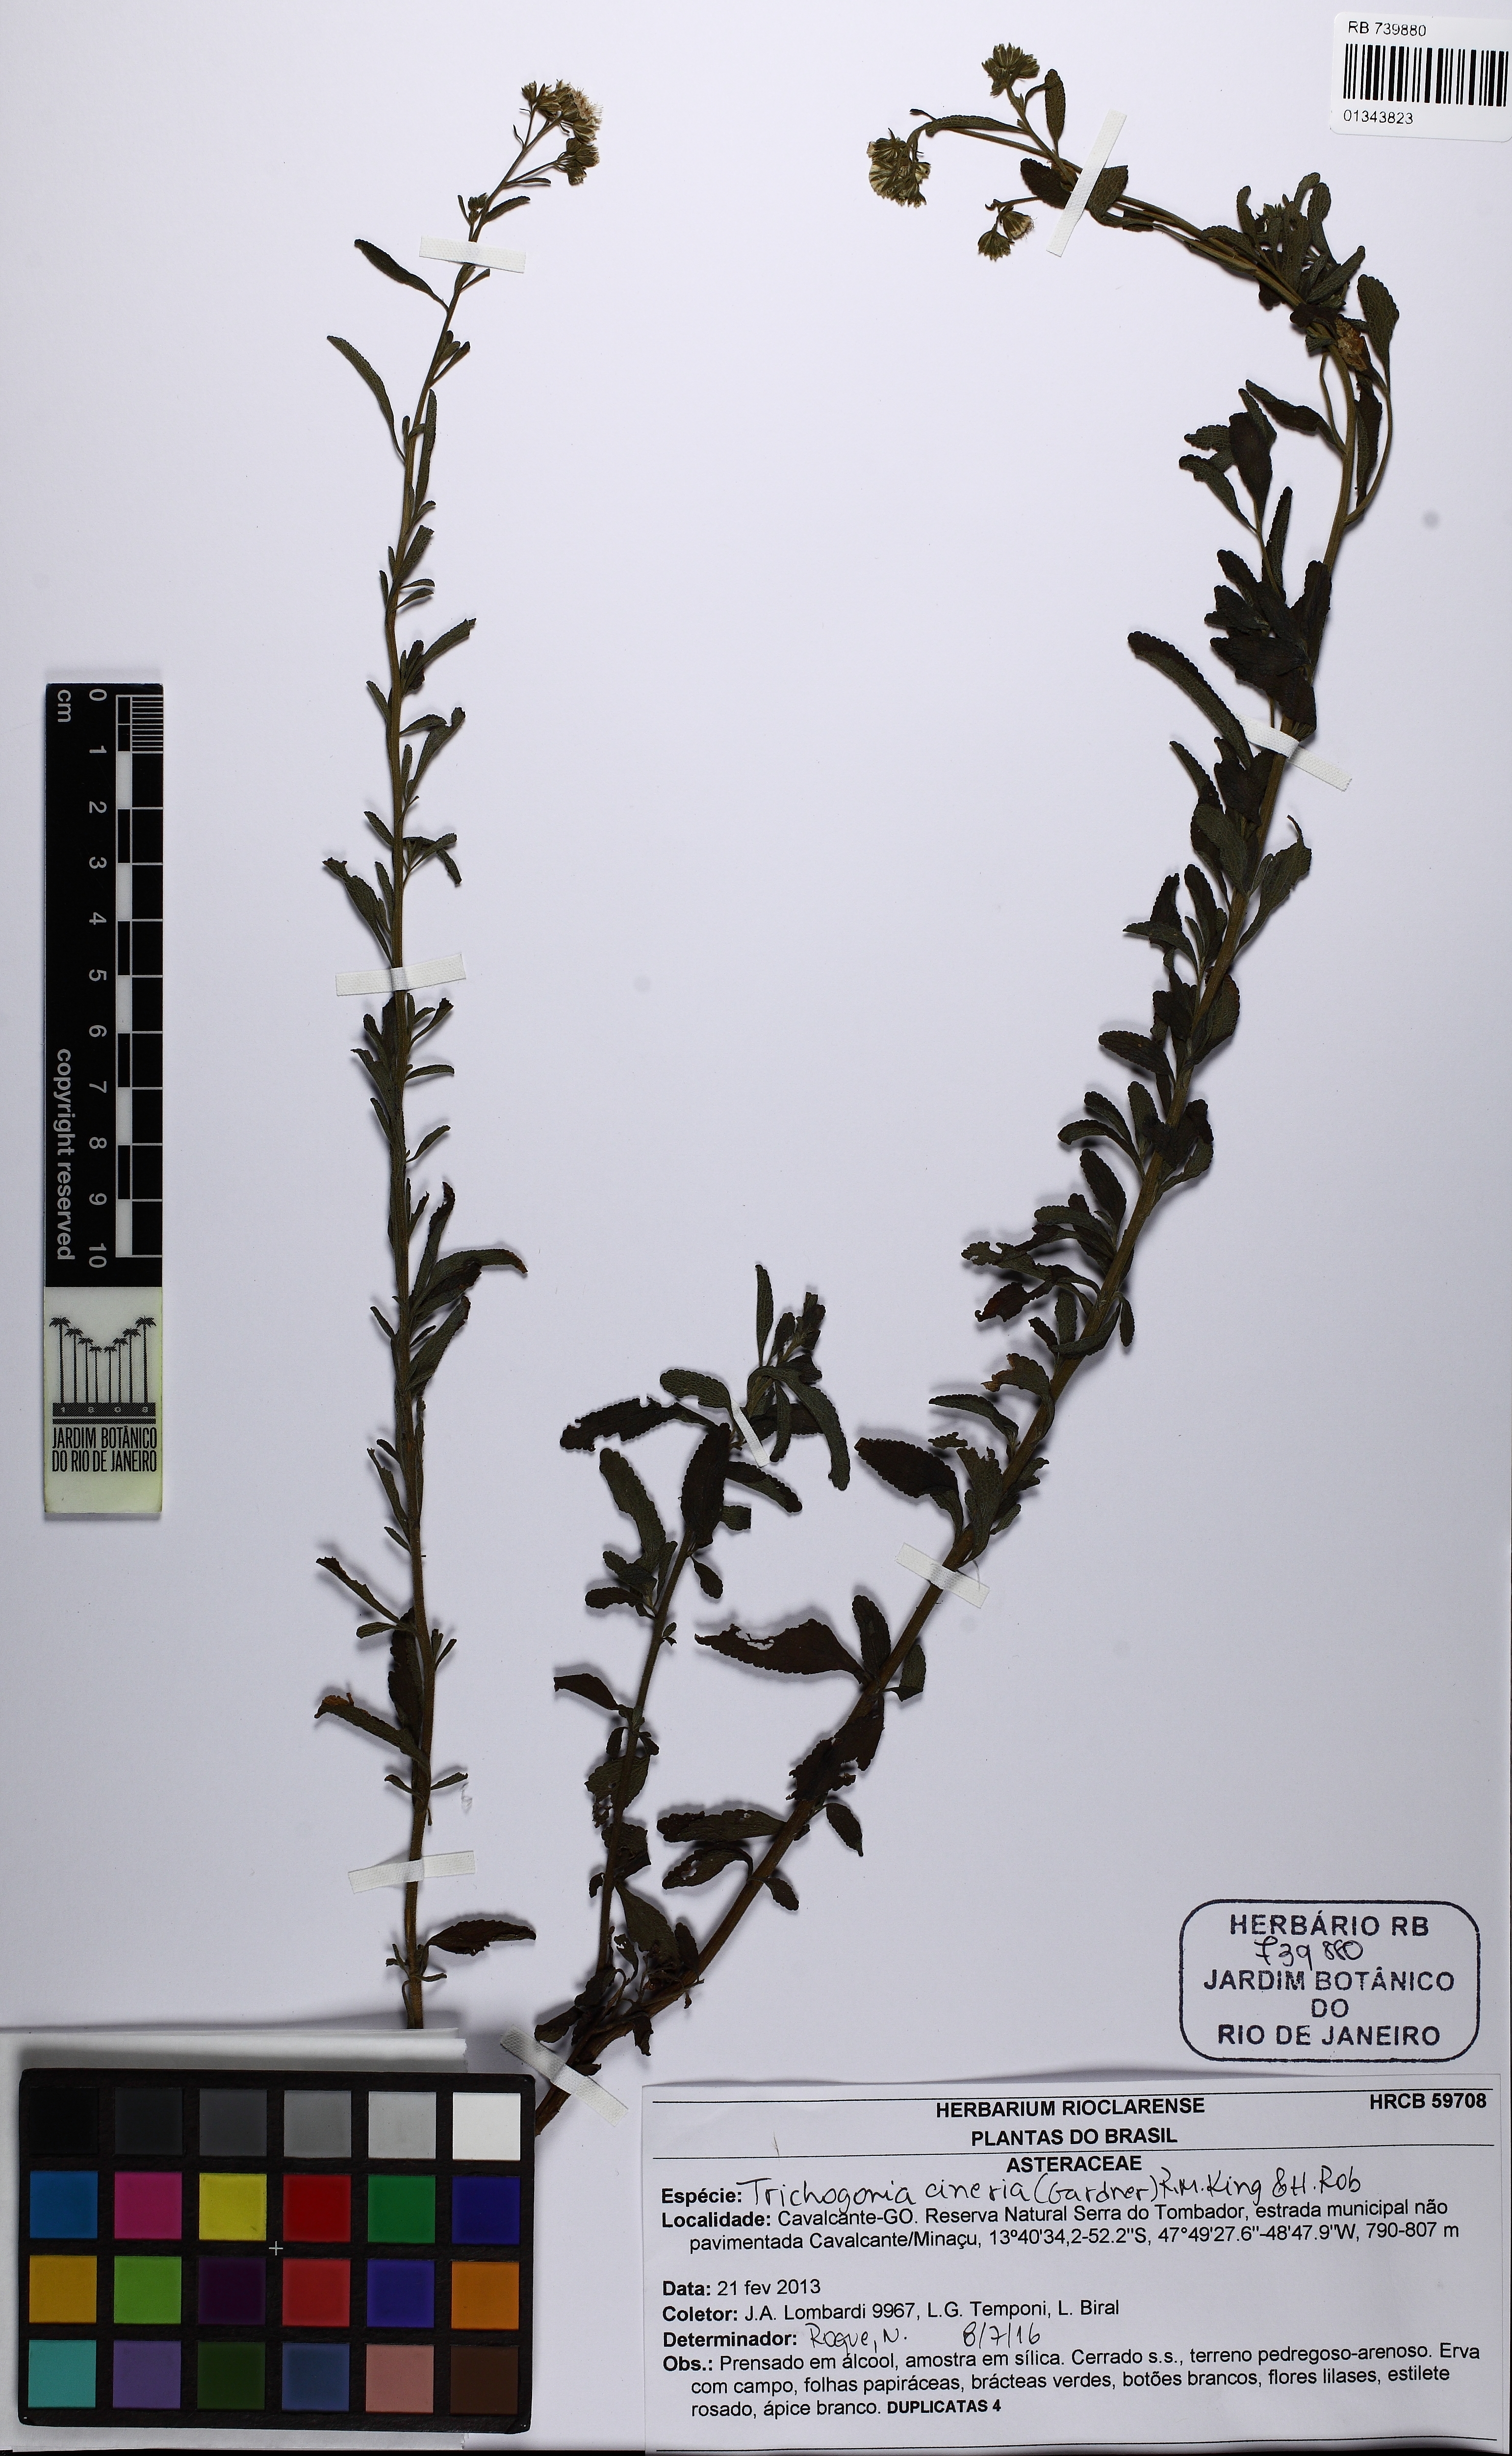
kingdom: Plantae
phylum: Tracheophyta
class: Magnoliopsida
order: Asterales
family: Asteraceae
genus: Trichogonia
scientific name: Trichogonia cinerea
